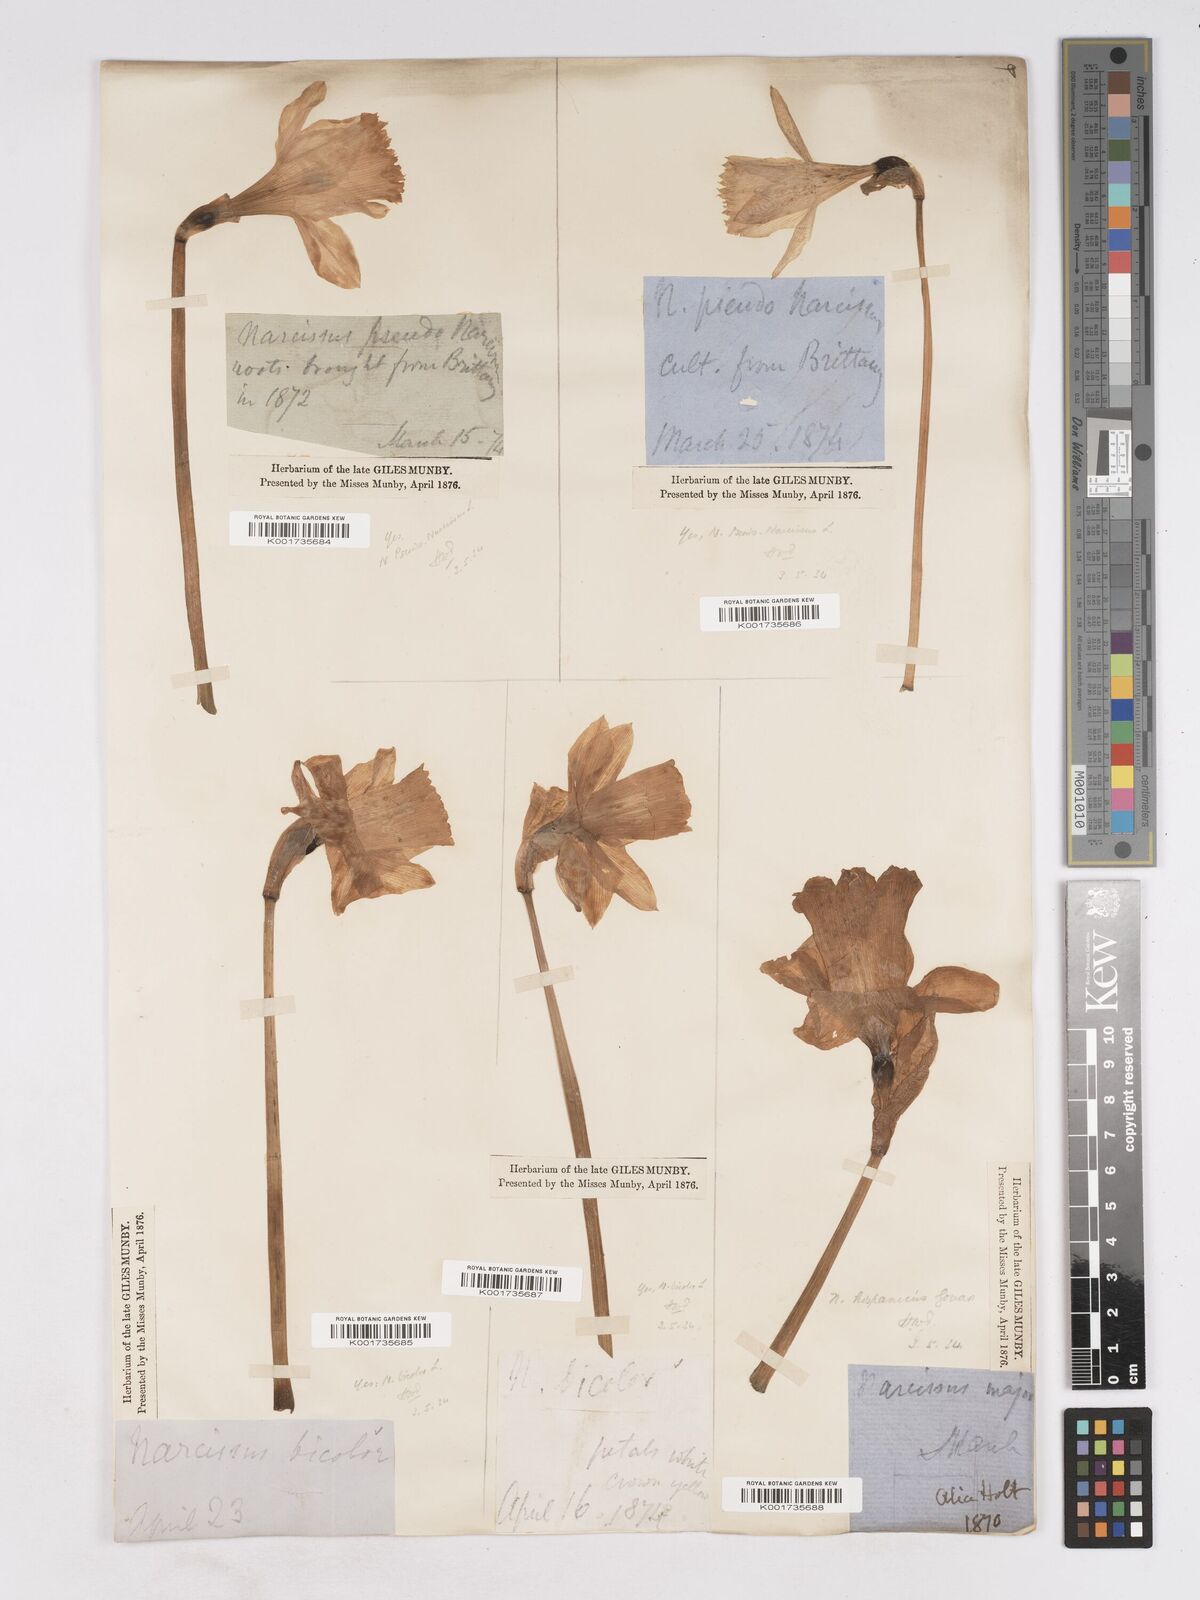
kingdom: Plantae
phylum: Tracheophyta
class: Liliopsida
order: Asparagales
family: Amaryllidaceae
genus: Narcissus
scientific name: Narcissus pseudonarcissus
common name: Daffodil
